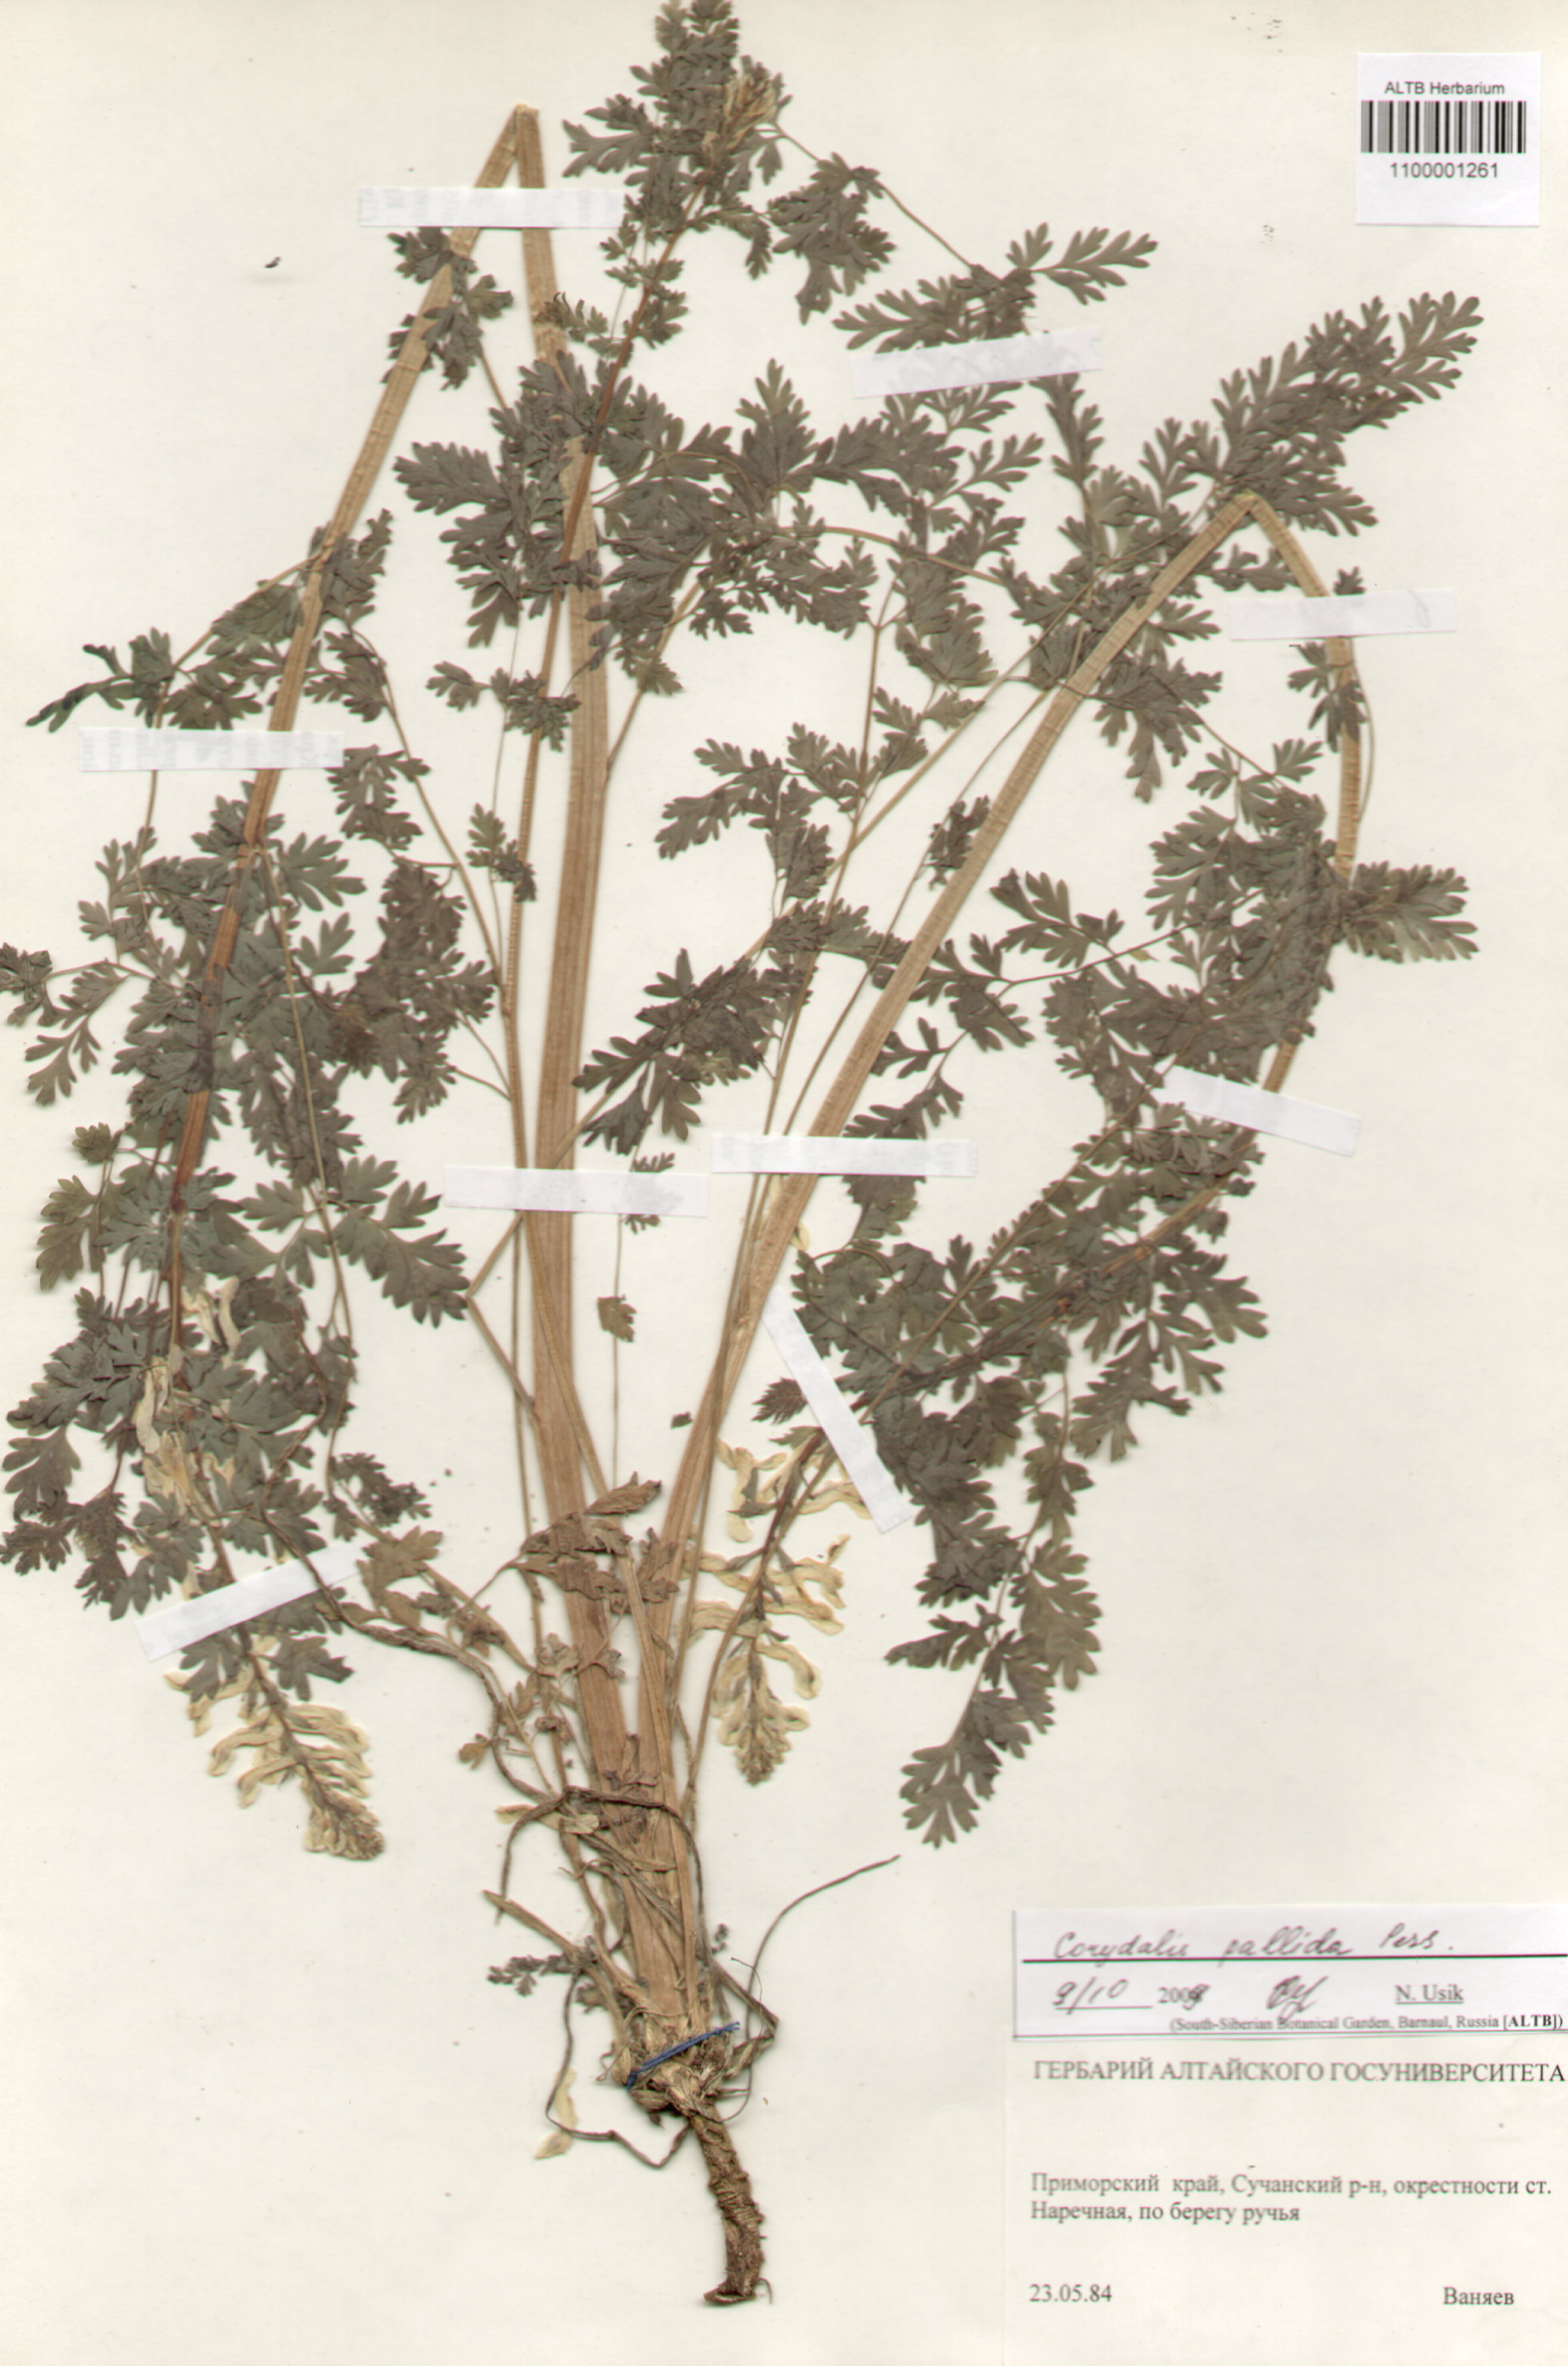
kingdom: Plantae
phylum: Tracheophyta
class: Magnoliopsida
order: Ranunculales
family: Papaveraceae
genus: Corydalis
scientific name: Corydalis pallida
